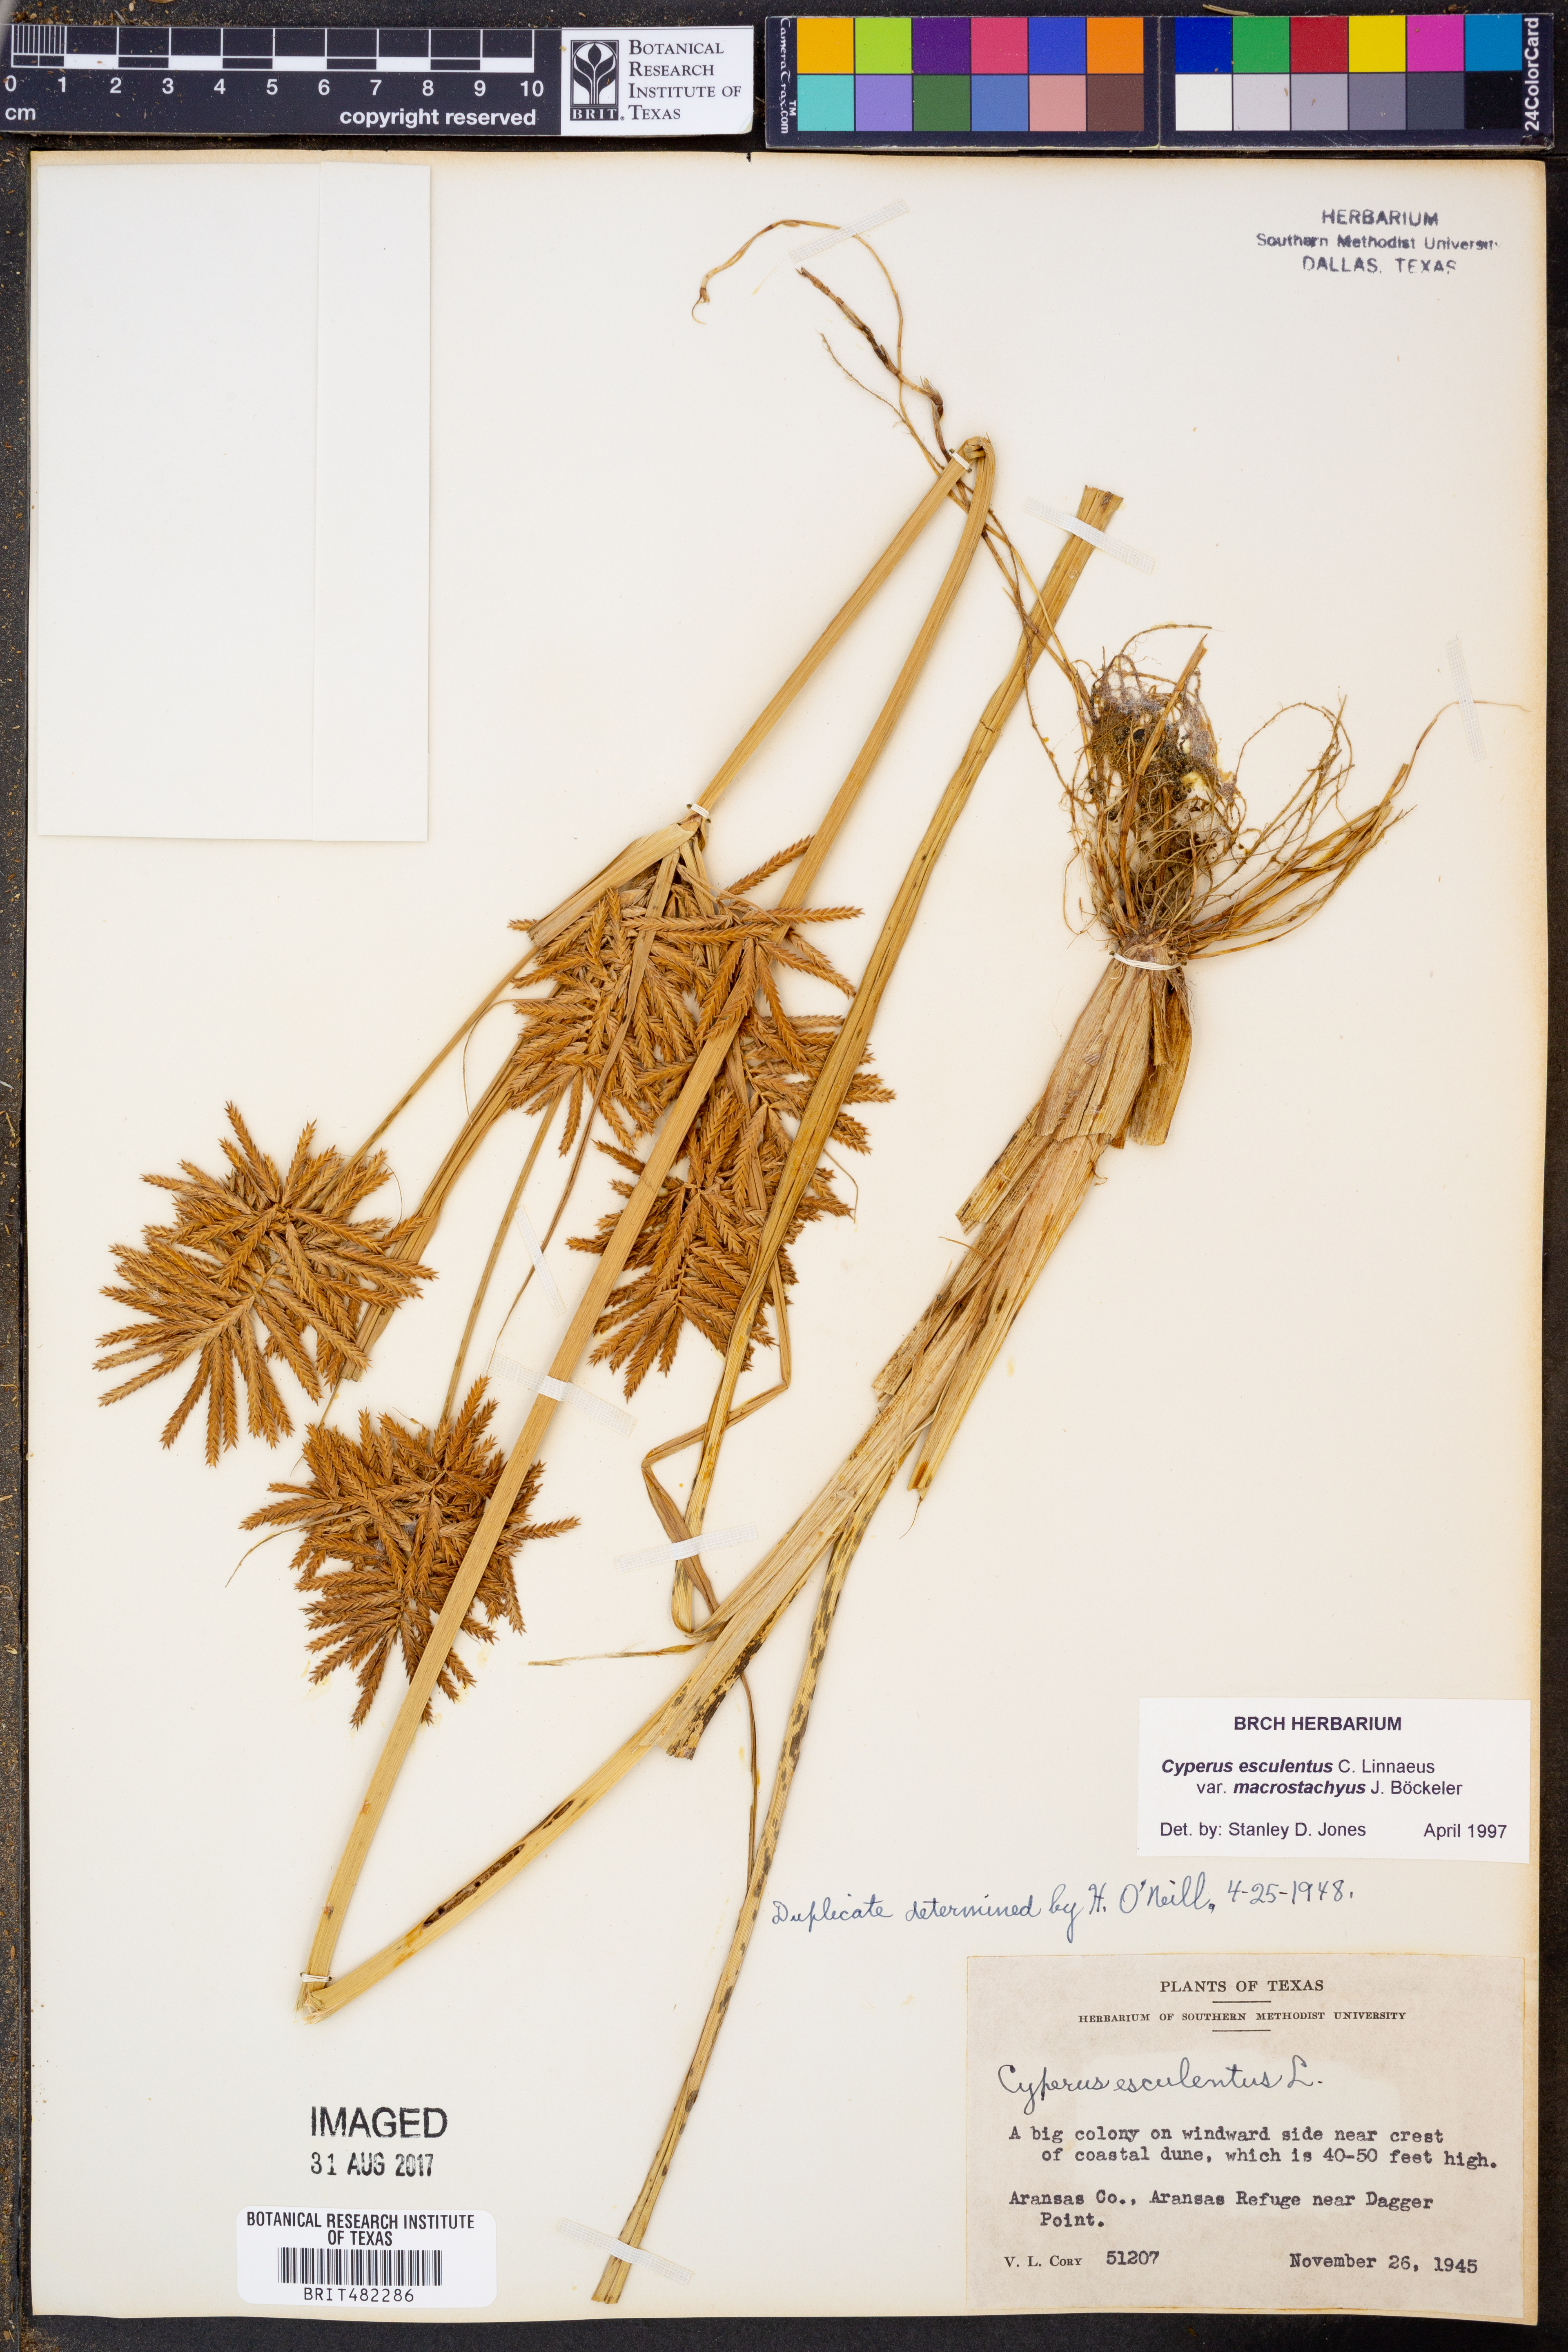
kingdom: Plantae
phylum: Tracheophyta
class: Liliopsida
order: Poales
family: Cyperaceae
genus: Cyperus
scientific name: Cyperus esculentus
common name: Yellow nutsedge
